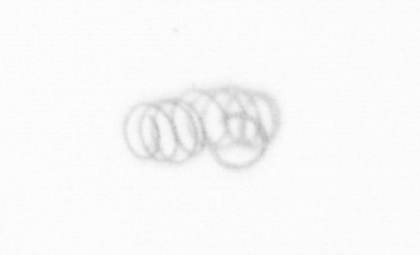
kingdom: Chromista
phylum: Ochrophyta
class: Bacillariophyceae
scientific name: Bacillariophyceae
